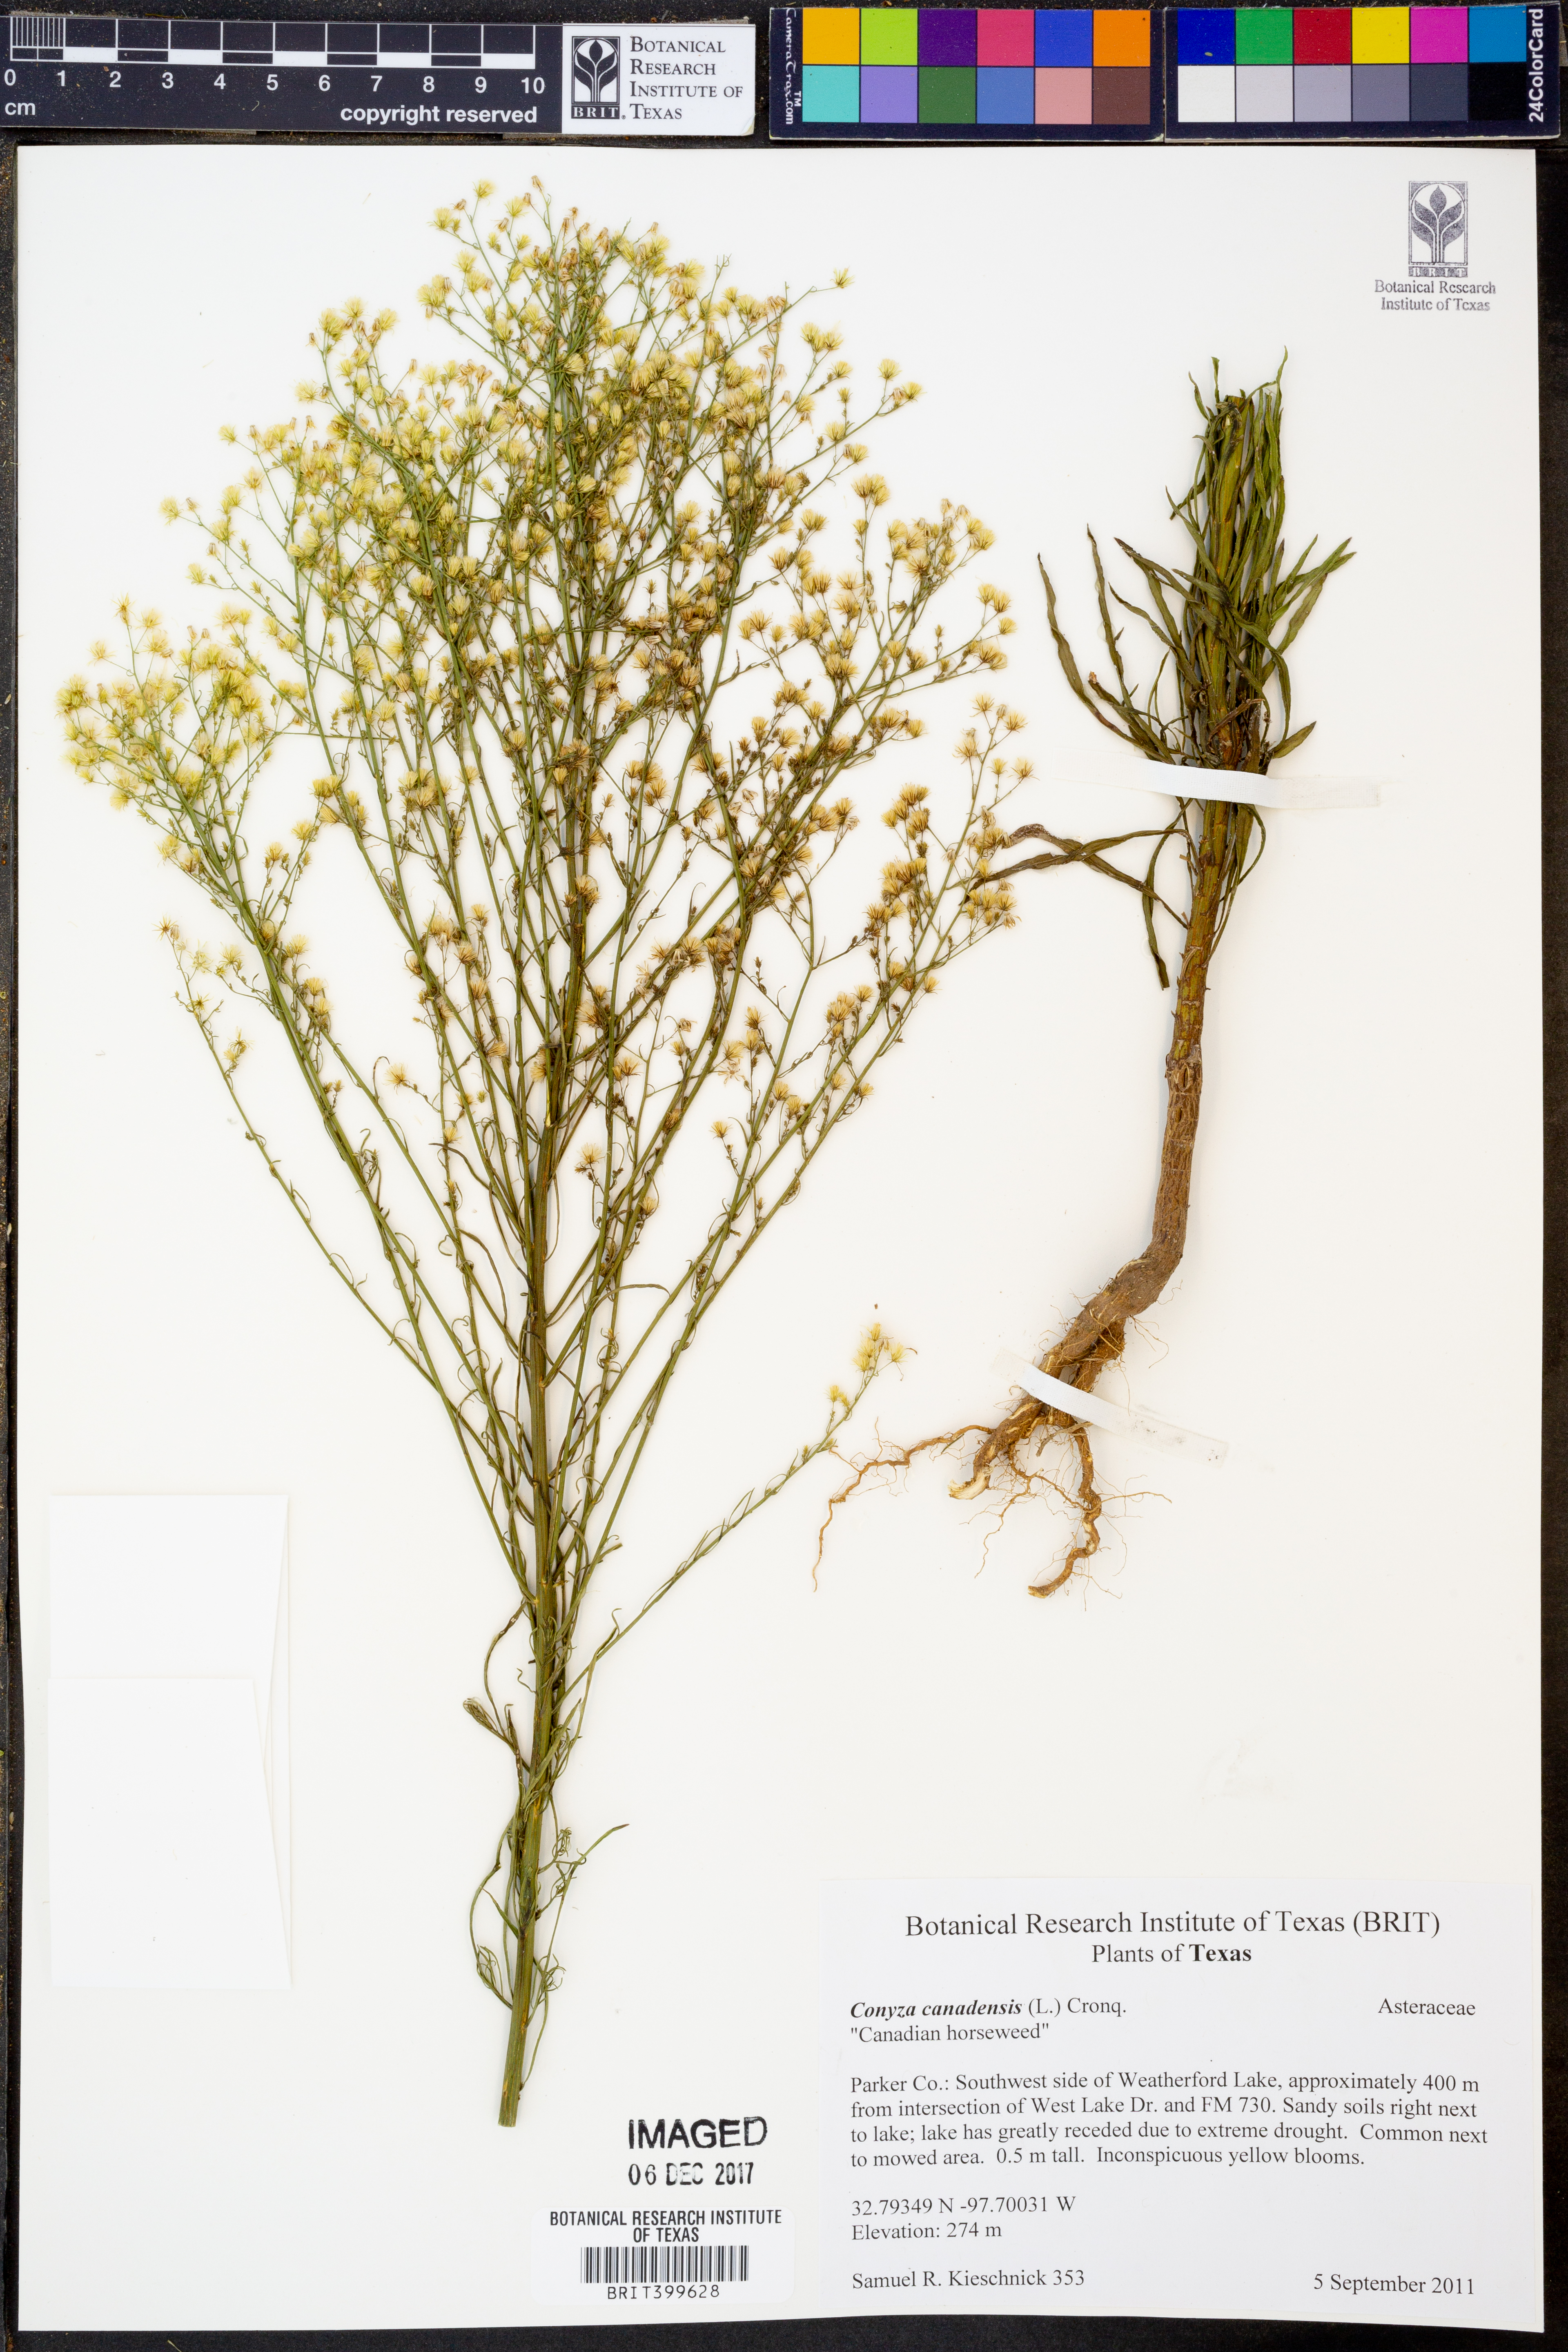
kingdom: Plantae
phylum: Tracheophyta
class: Magnoliopsida
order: Asterales
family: Asteraceae
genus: Erigeron
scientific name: Erigeron canadensis
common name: Canadian fleabane
